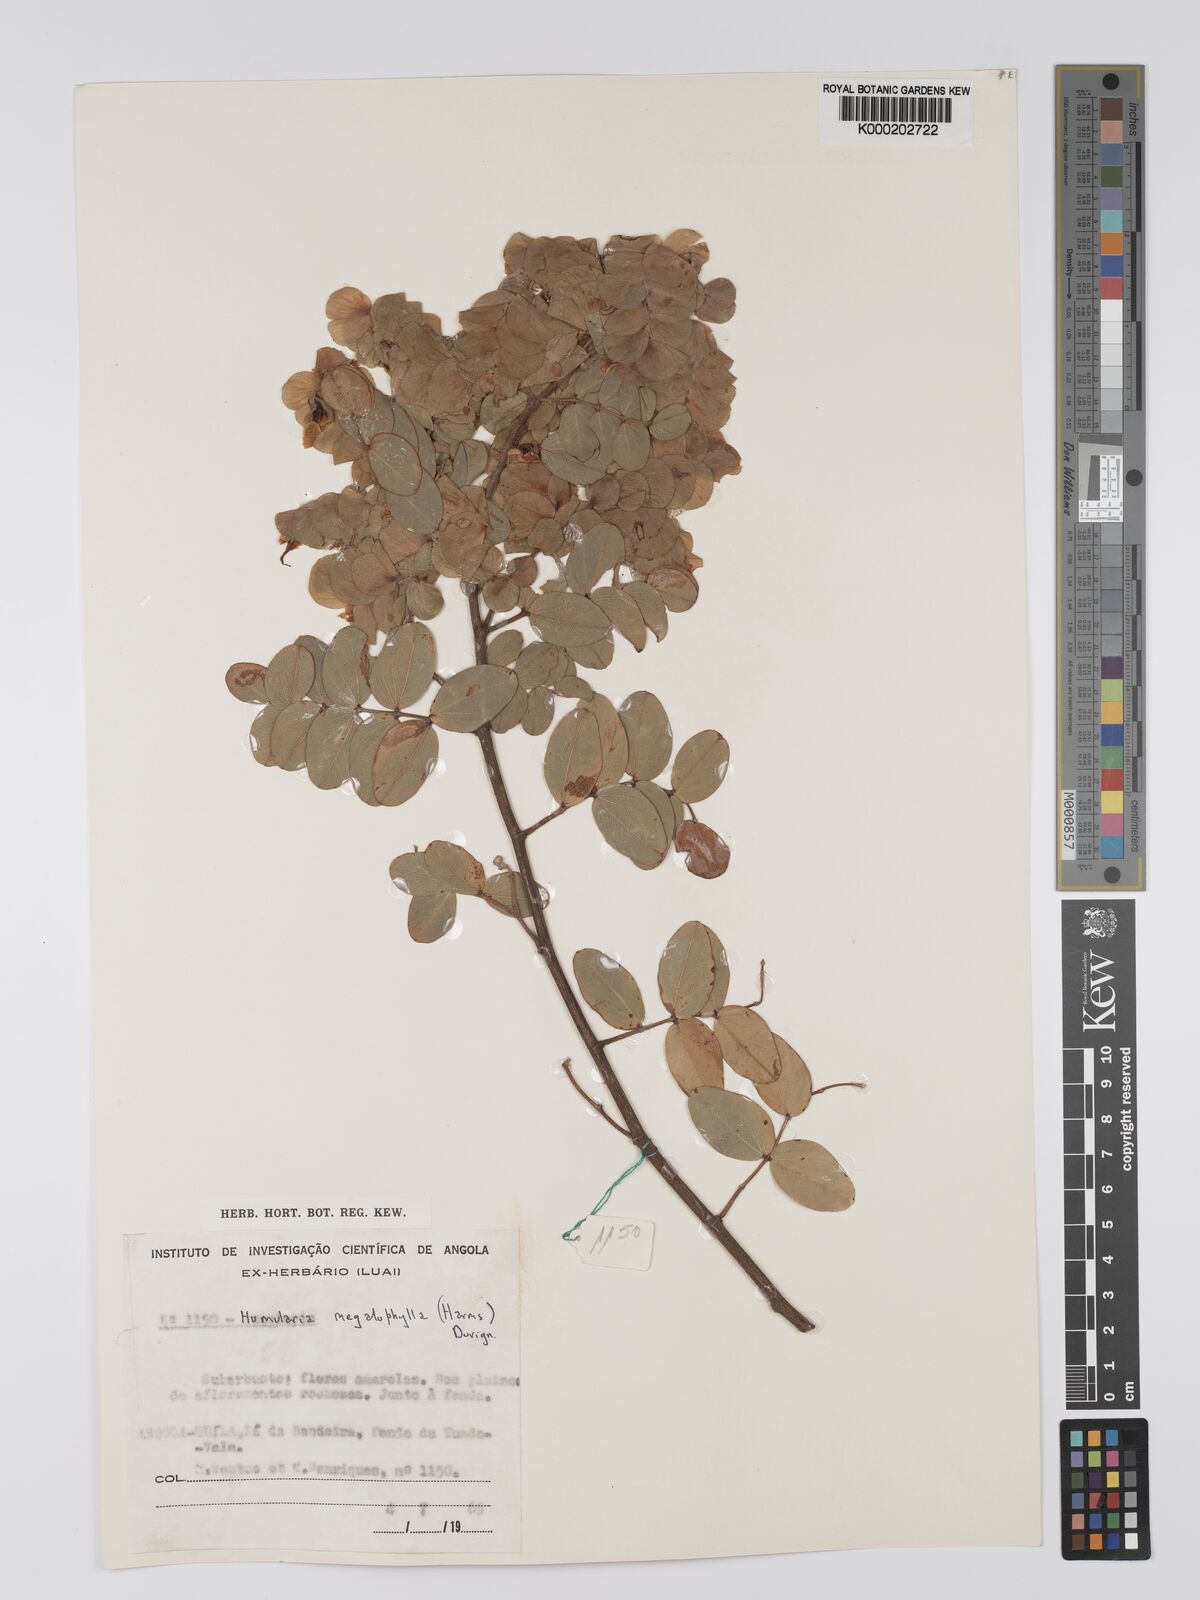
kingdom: Plantae
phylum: Tracheophyta
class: Magnoliopsida
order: Fabales
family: Fabaceae
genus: Humularia
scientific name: Humularia welwitschii
